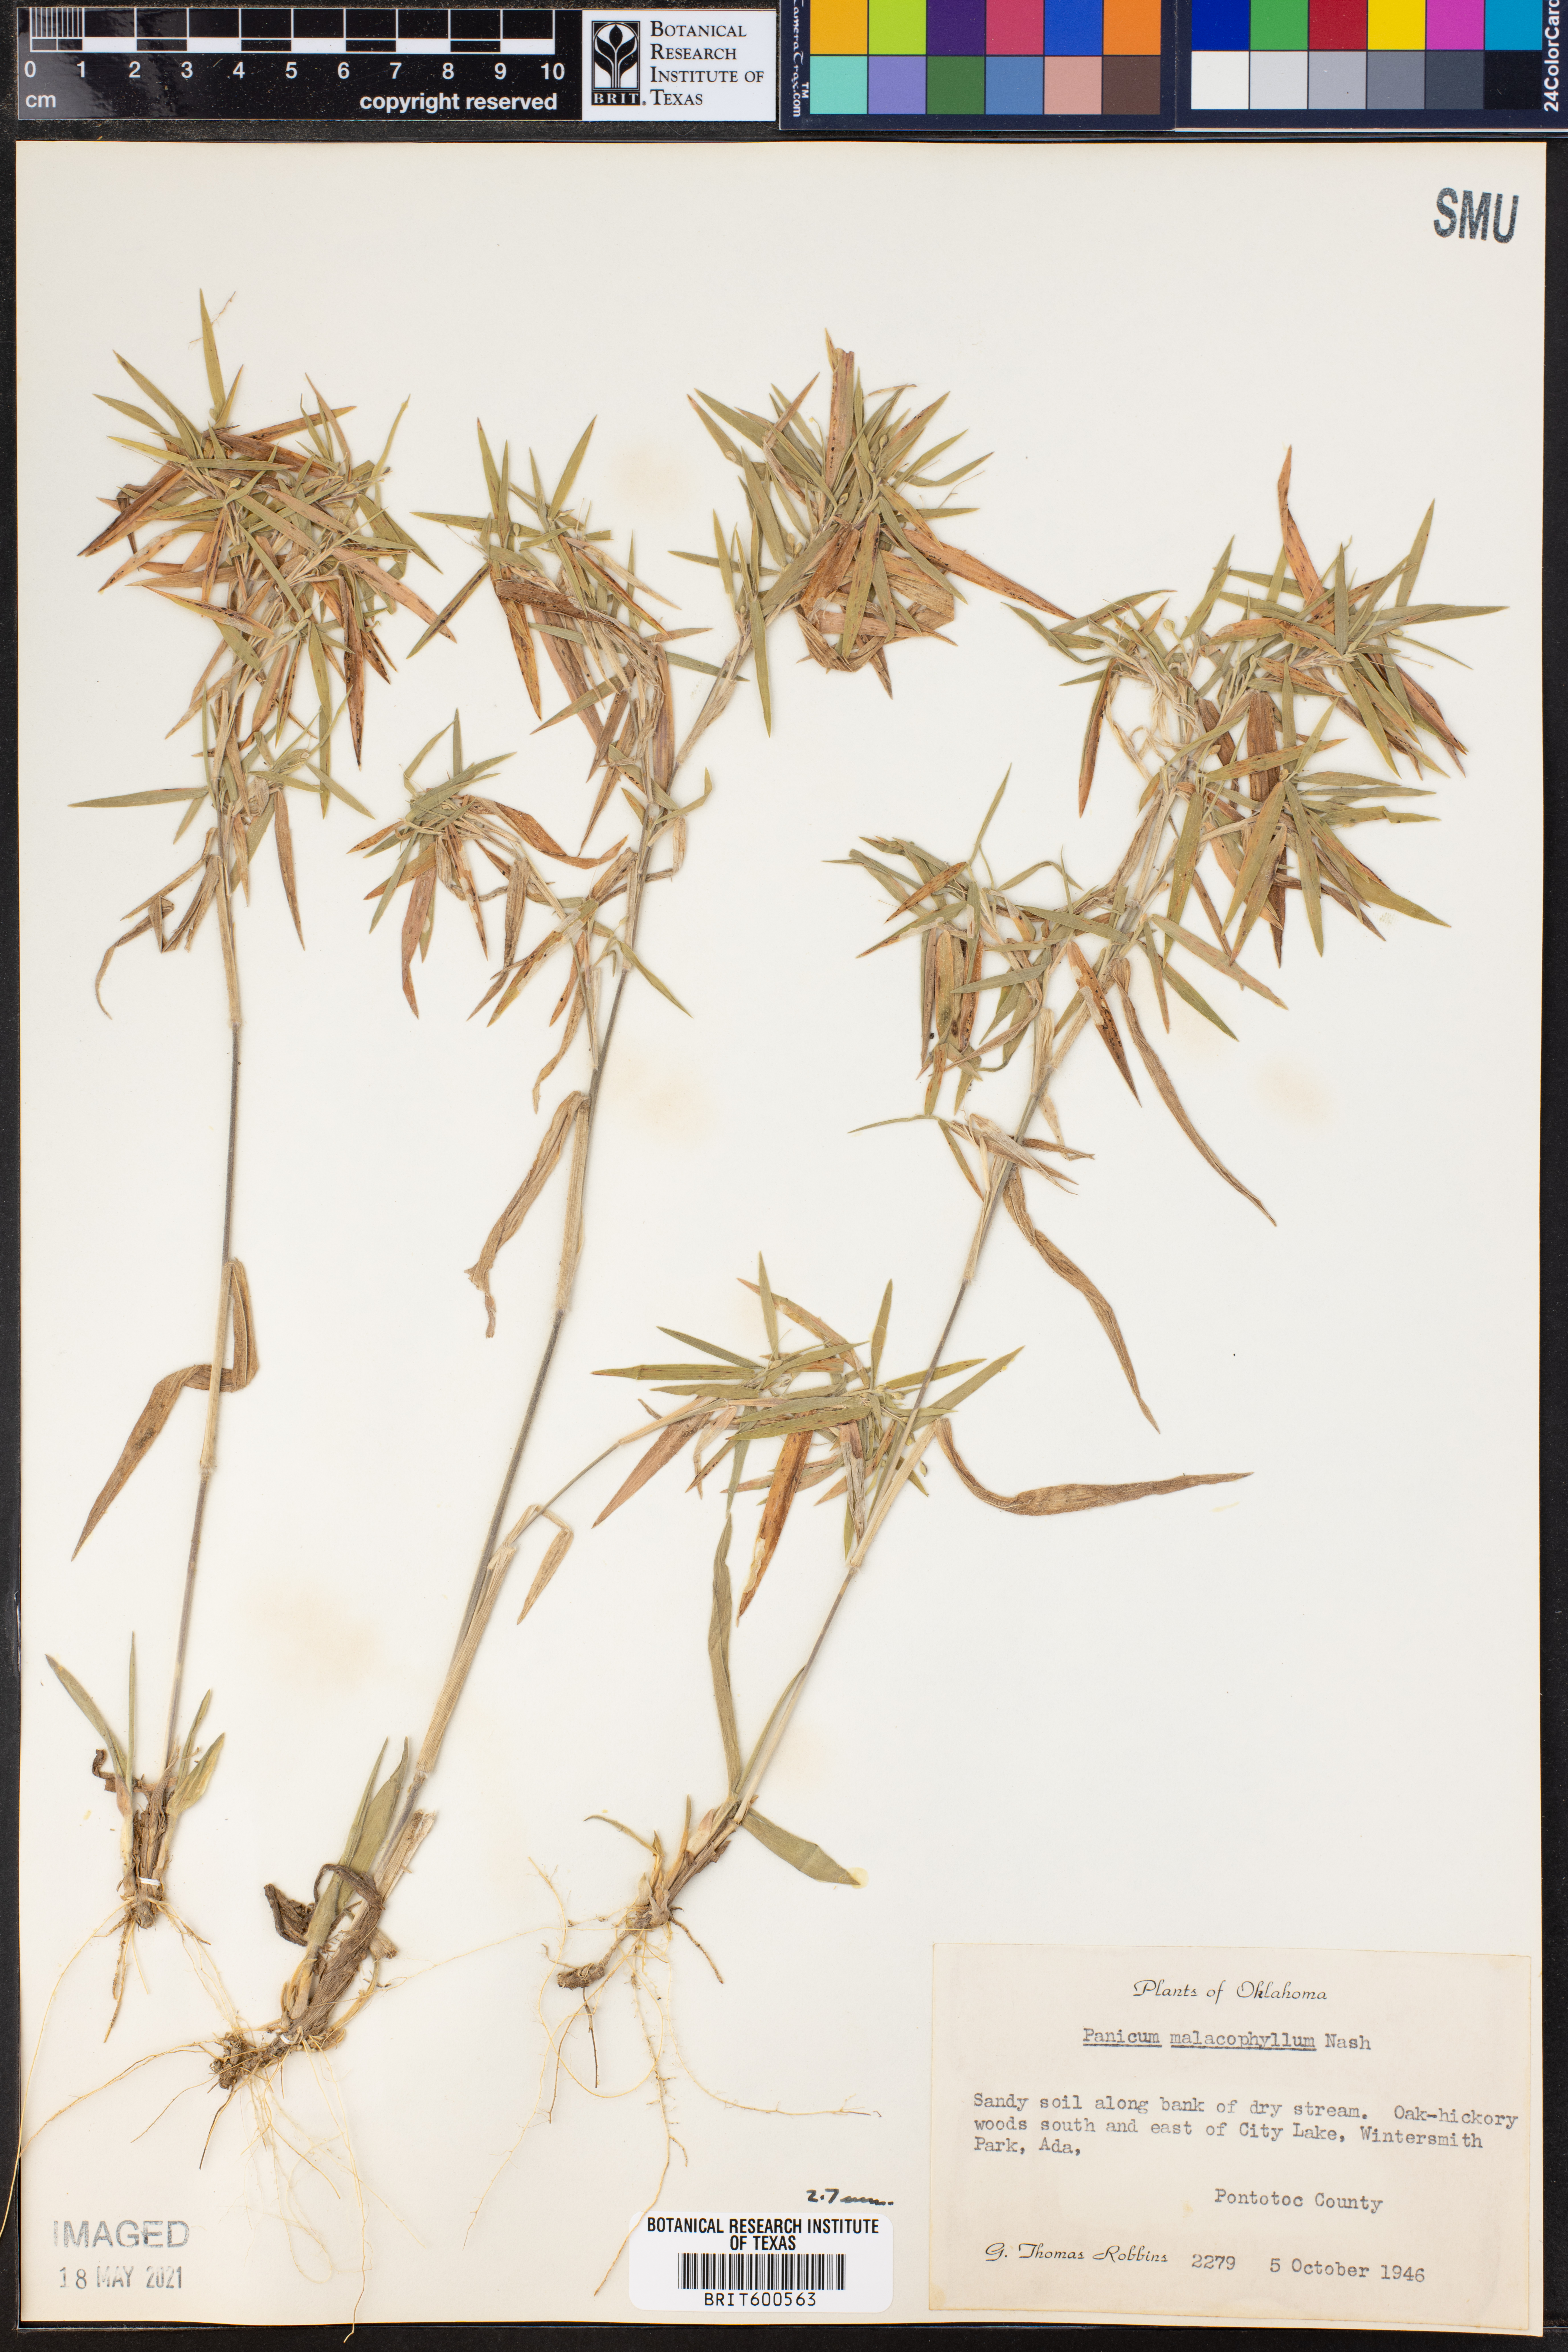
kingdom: Plantae
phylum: Tracheophyta
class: Liliopsida
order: Poales
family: Poaceae
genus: Dichanthelium
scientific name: Dichanthelium malacophyllum
